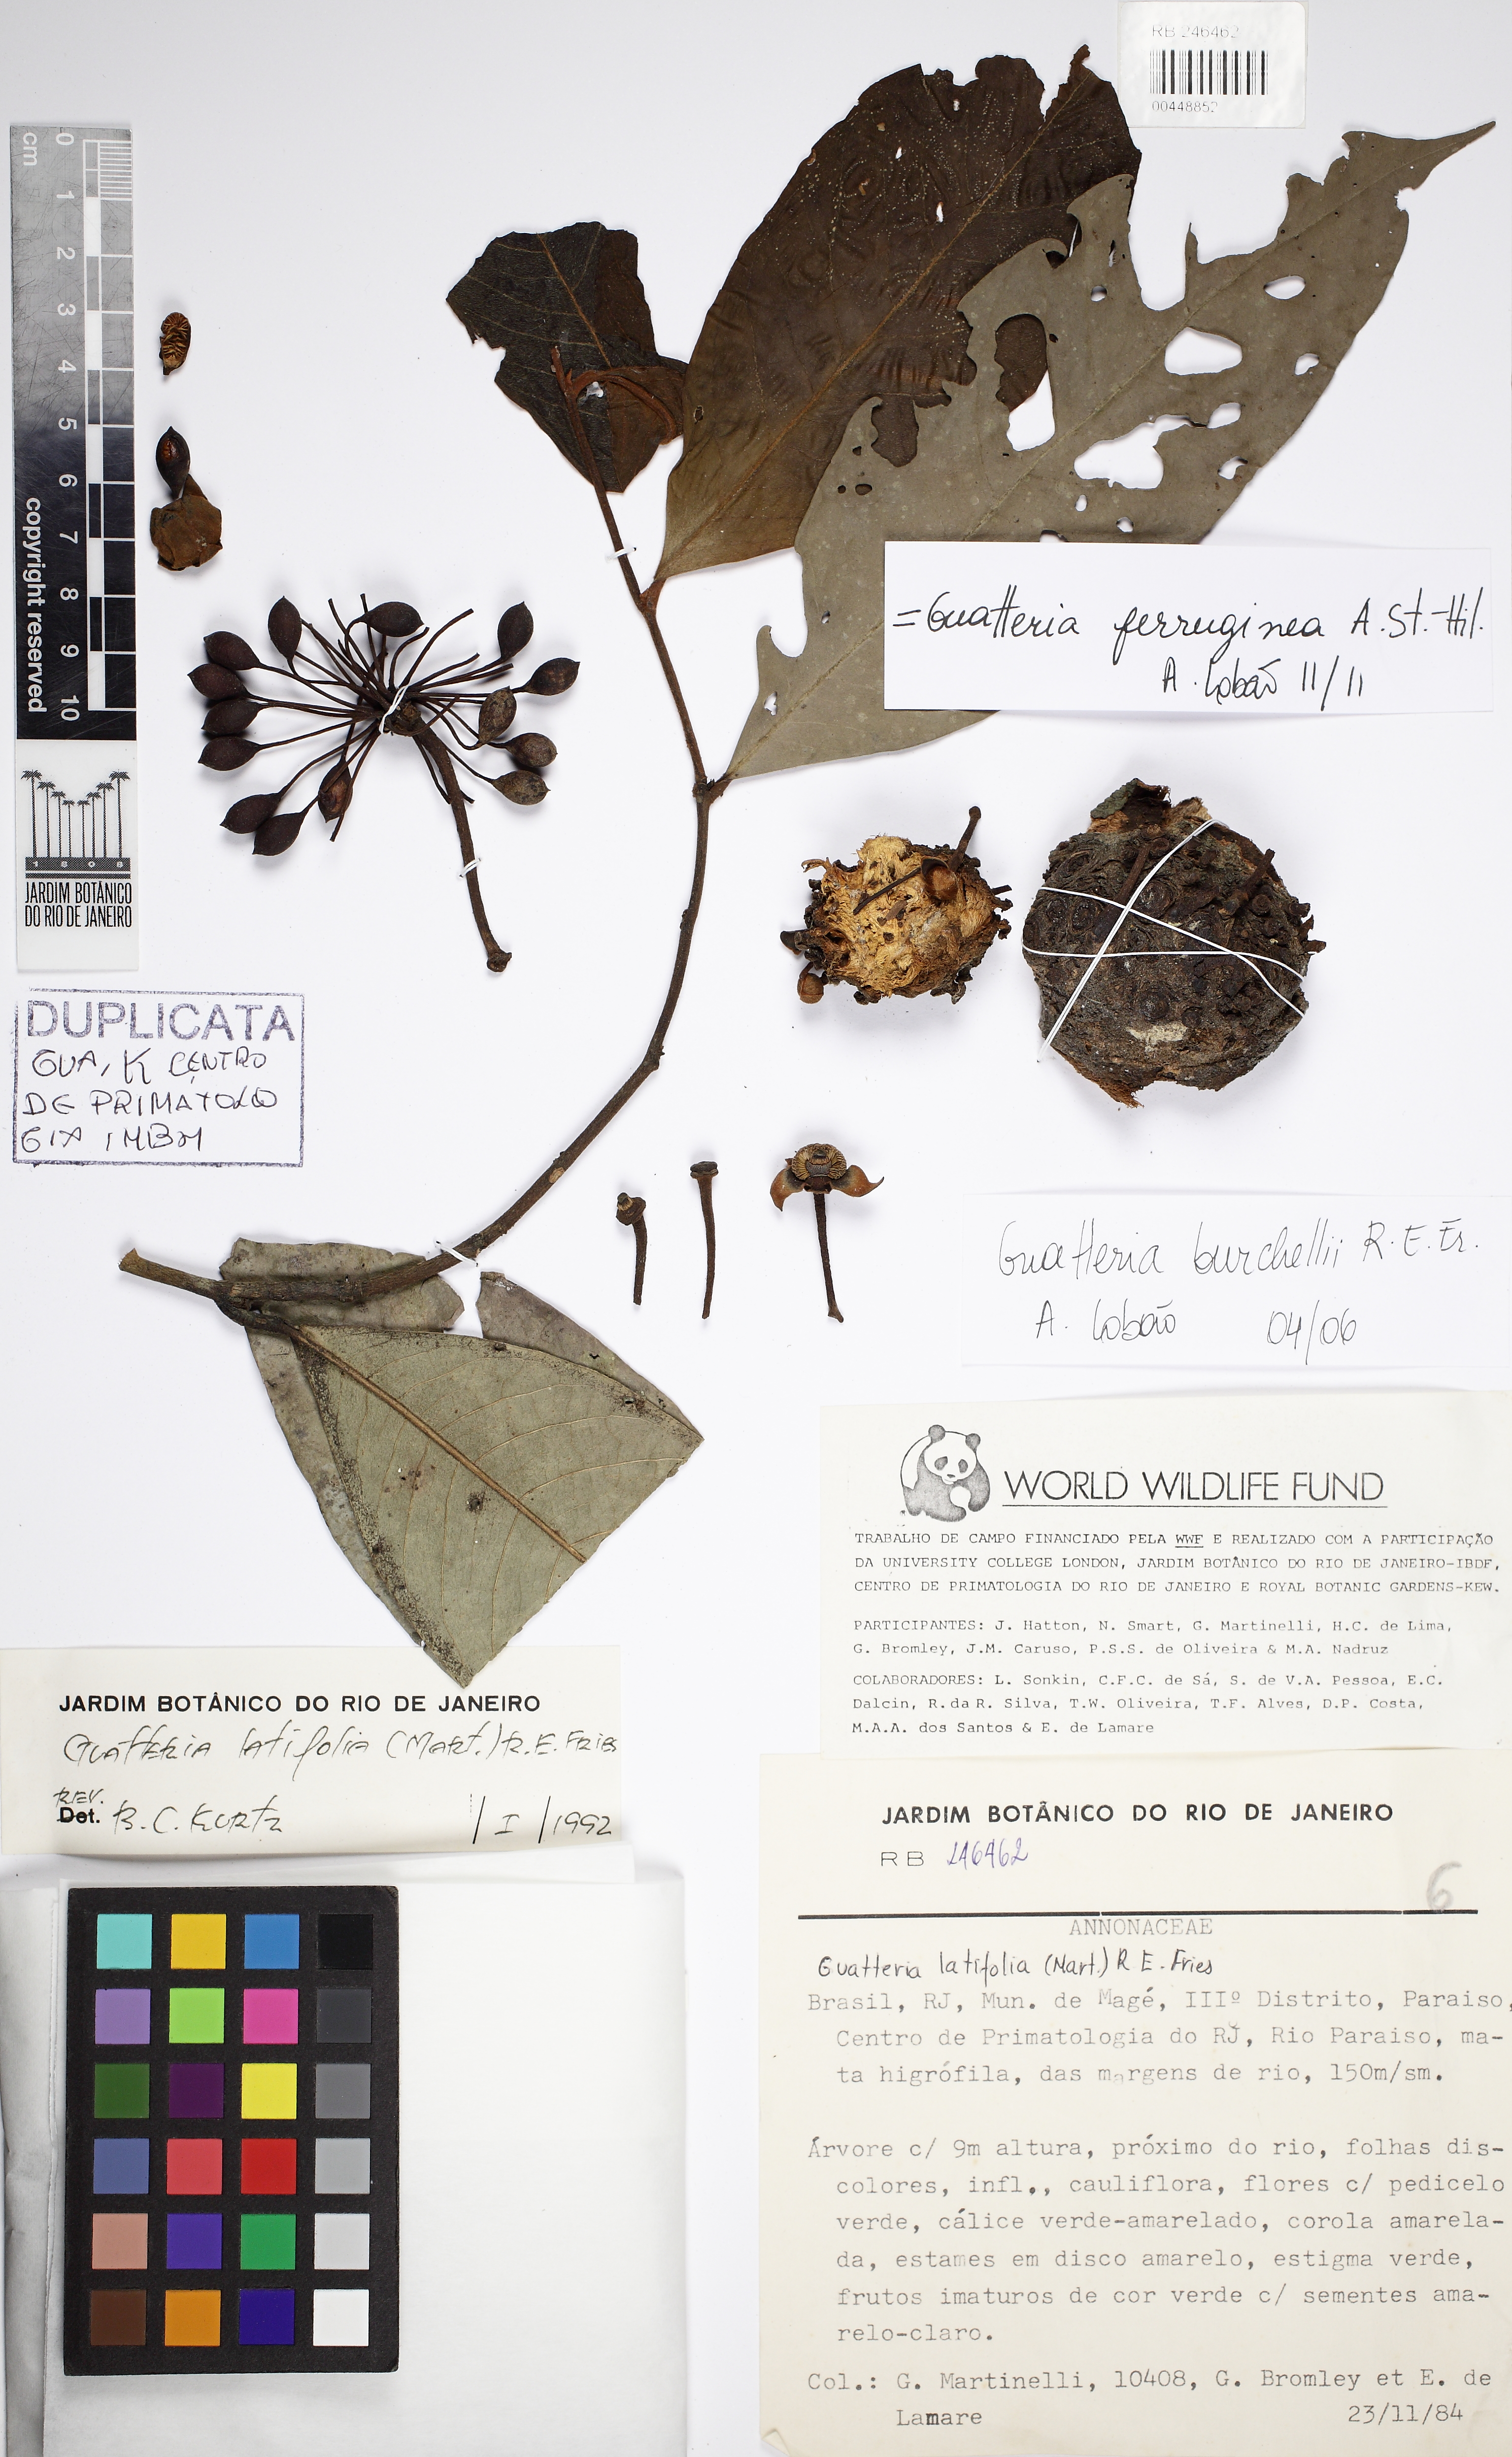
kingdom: Plantae
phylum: Tracheophyta
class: Magnoliopsida
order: Magnoliales
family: Annonaceae
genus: Guatteria
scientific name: Guatteria ferruginea
